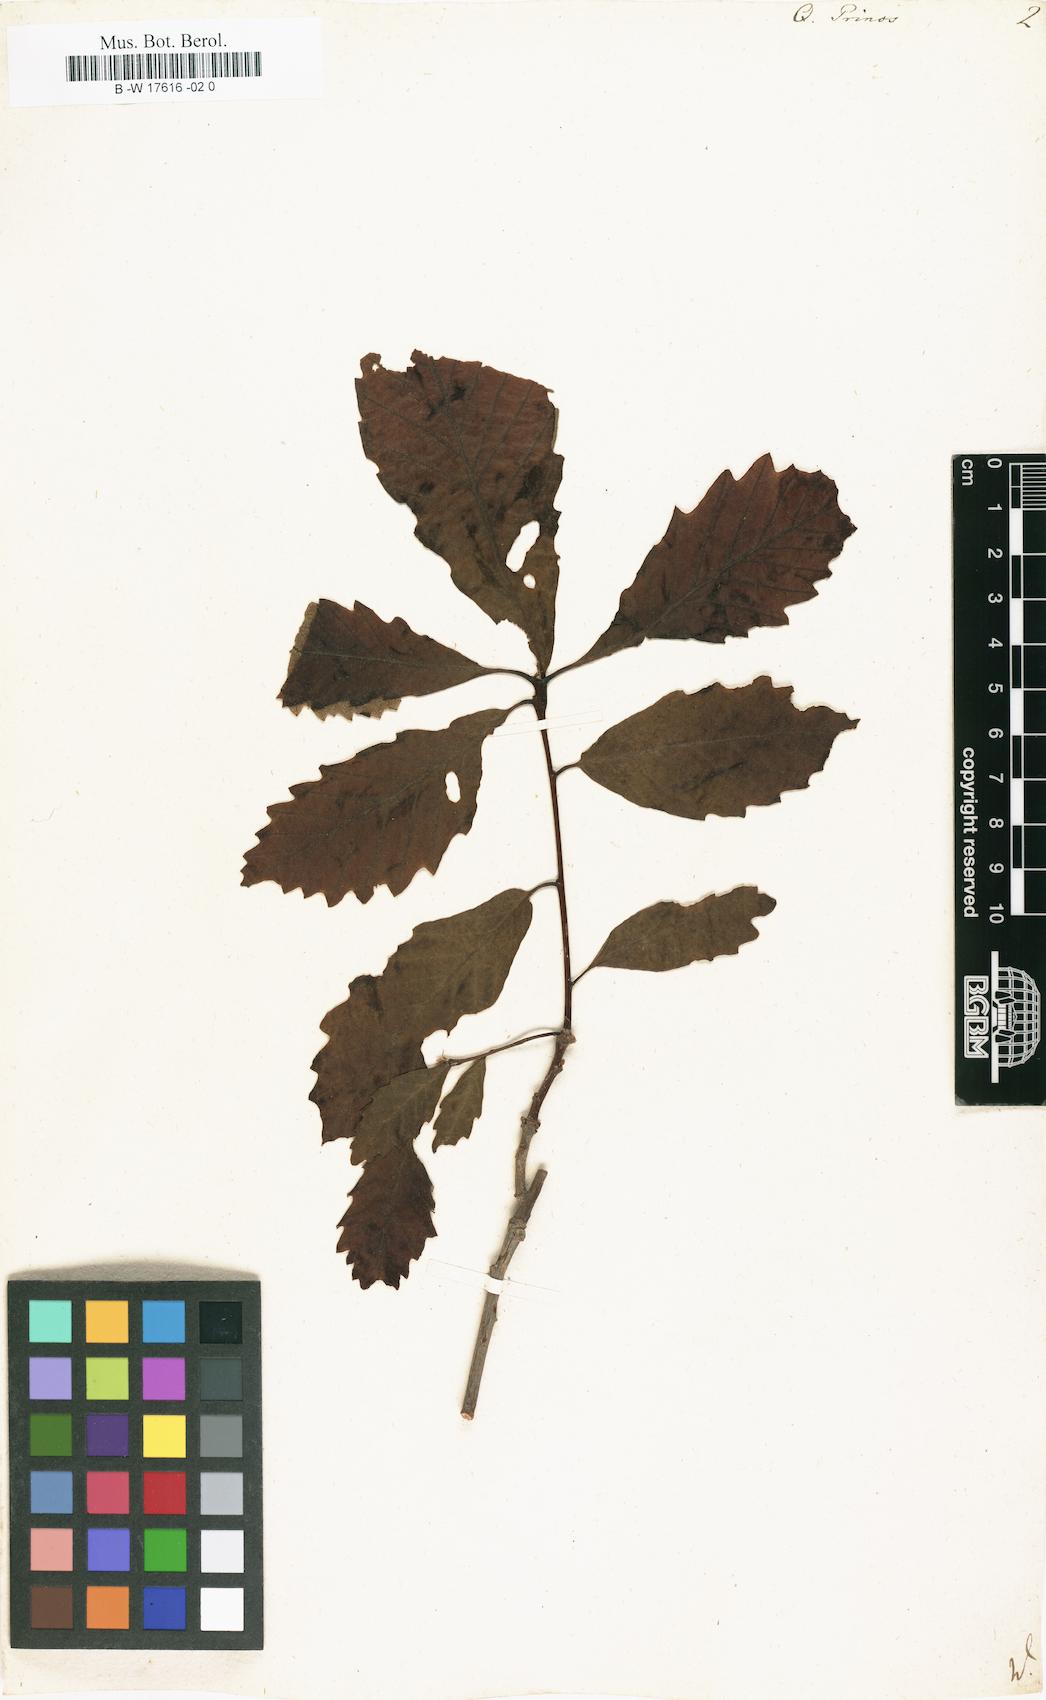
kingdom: Plantae
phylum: Tracheophyta
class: Magnoliopsida
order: Fagales
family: Fagaceae
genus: Quercus
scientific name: Quercus michauxii
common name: Swamp chestnut oak
